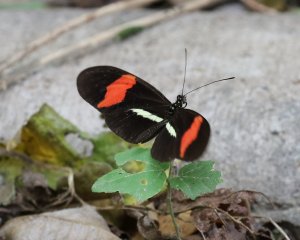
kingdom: Animalia
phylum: Arthropoda
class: Insecta
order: Lepidoptera
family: Nymphalidae
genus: Heliconius
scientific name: Heliconius erato
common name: Erato Heliconian
